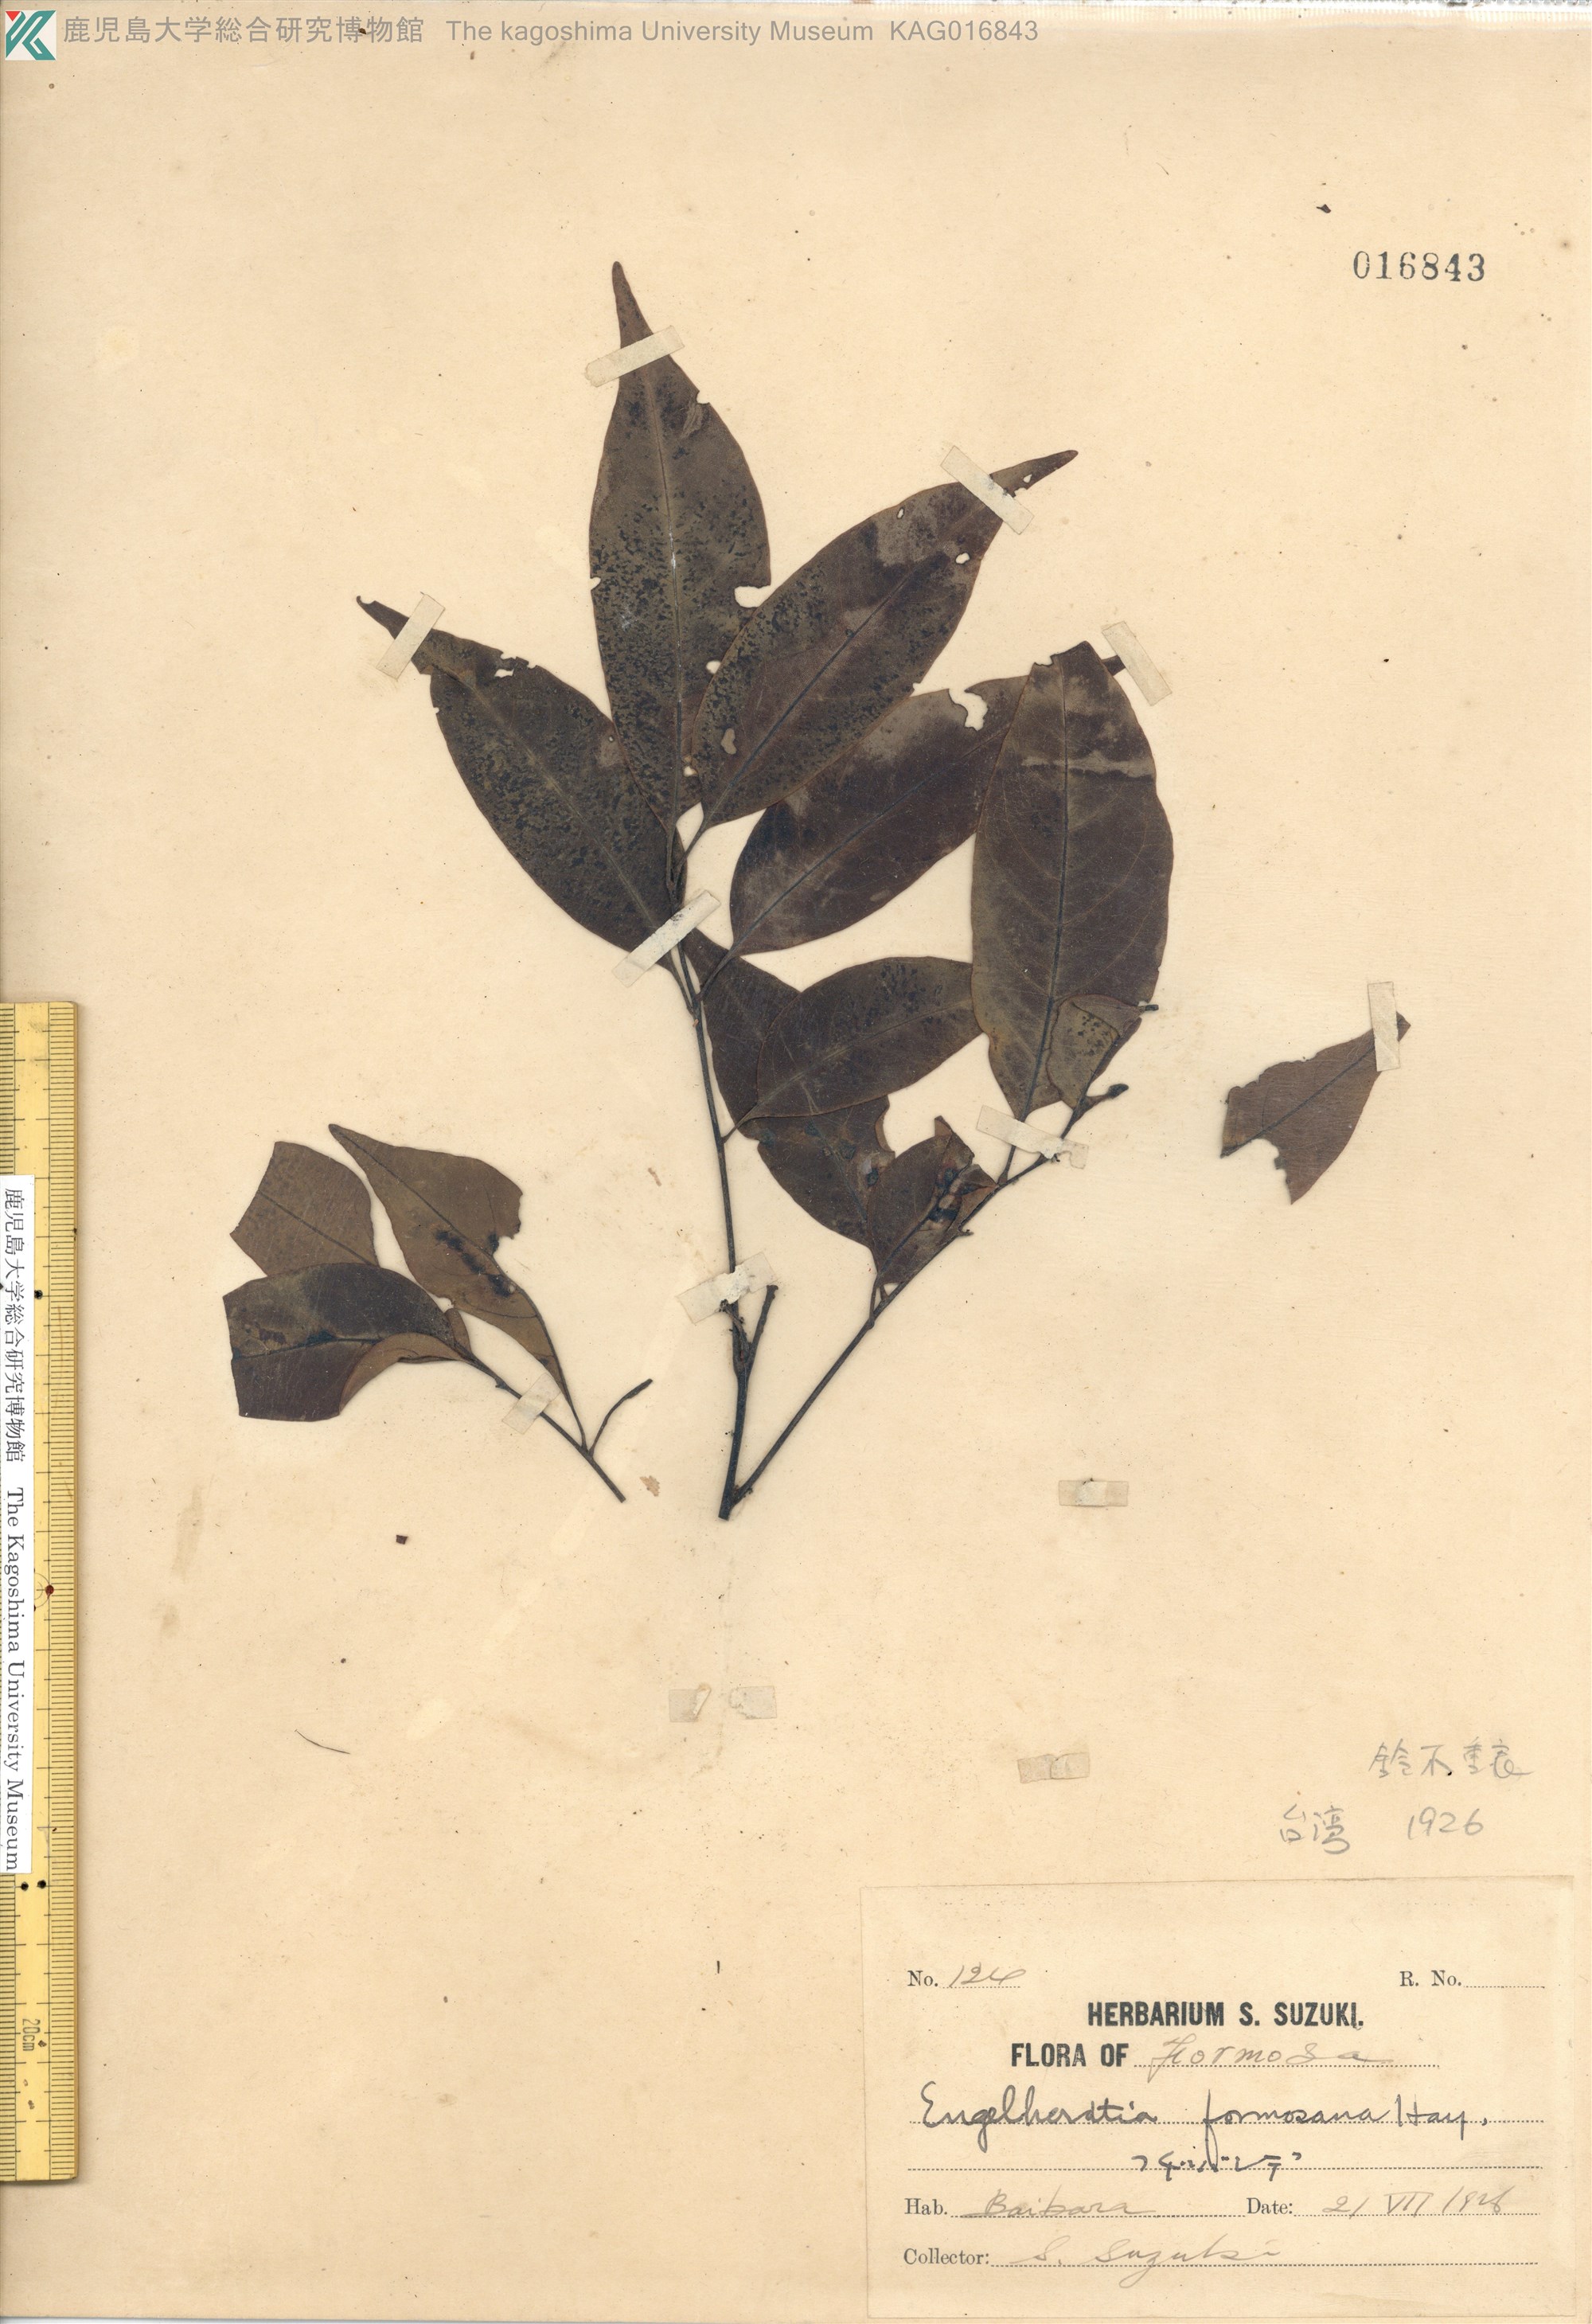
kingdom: Plantae
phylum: Tracheophyta
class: Magnoliopsida
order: Fagales
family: Juglandaceae
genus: Engelhardtia
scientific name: Engelhardtia roxburghiana
